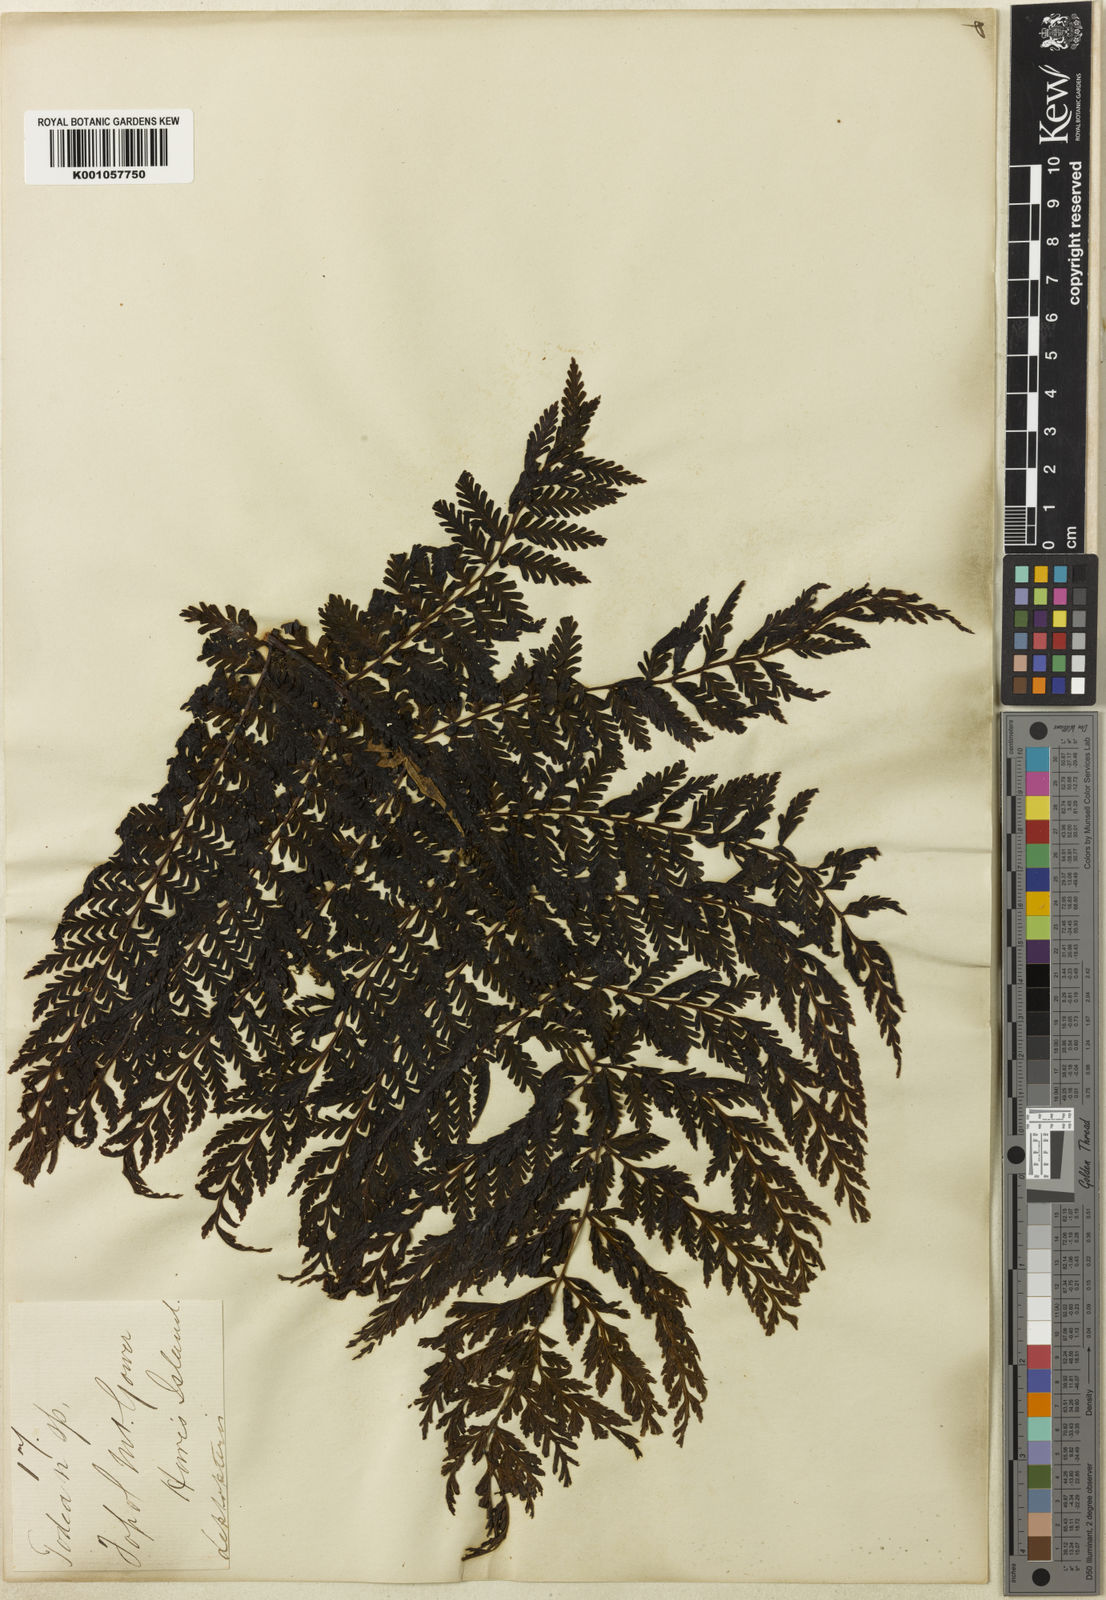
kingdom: Plantae
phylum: Tracheophyta
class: Polypodiopsida
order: Osmundales
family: Osmundaceae
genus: Leptopteris
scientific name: Leptopteris moorei
